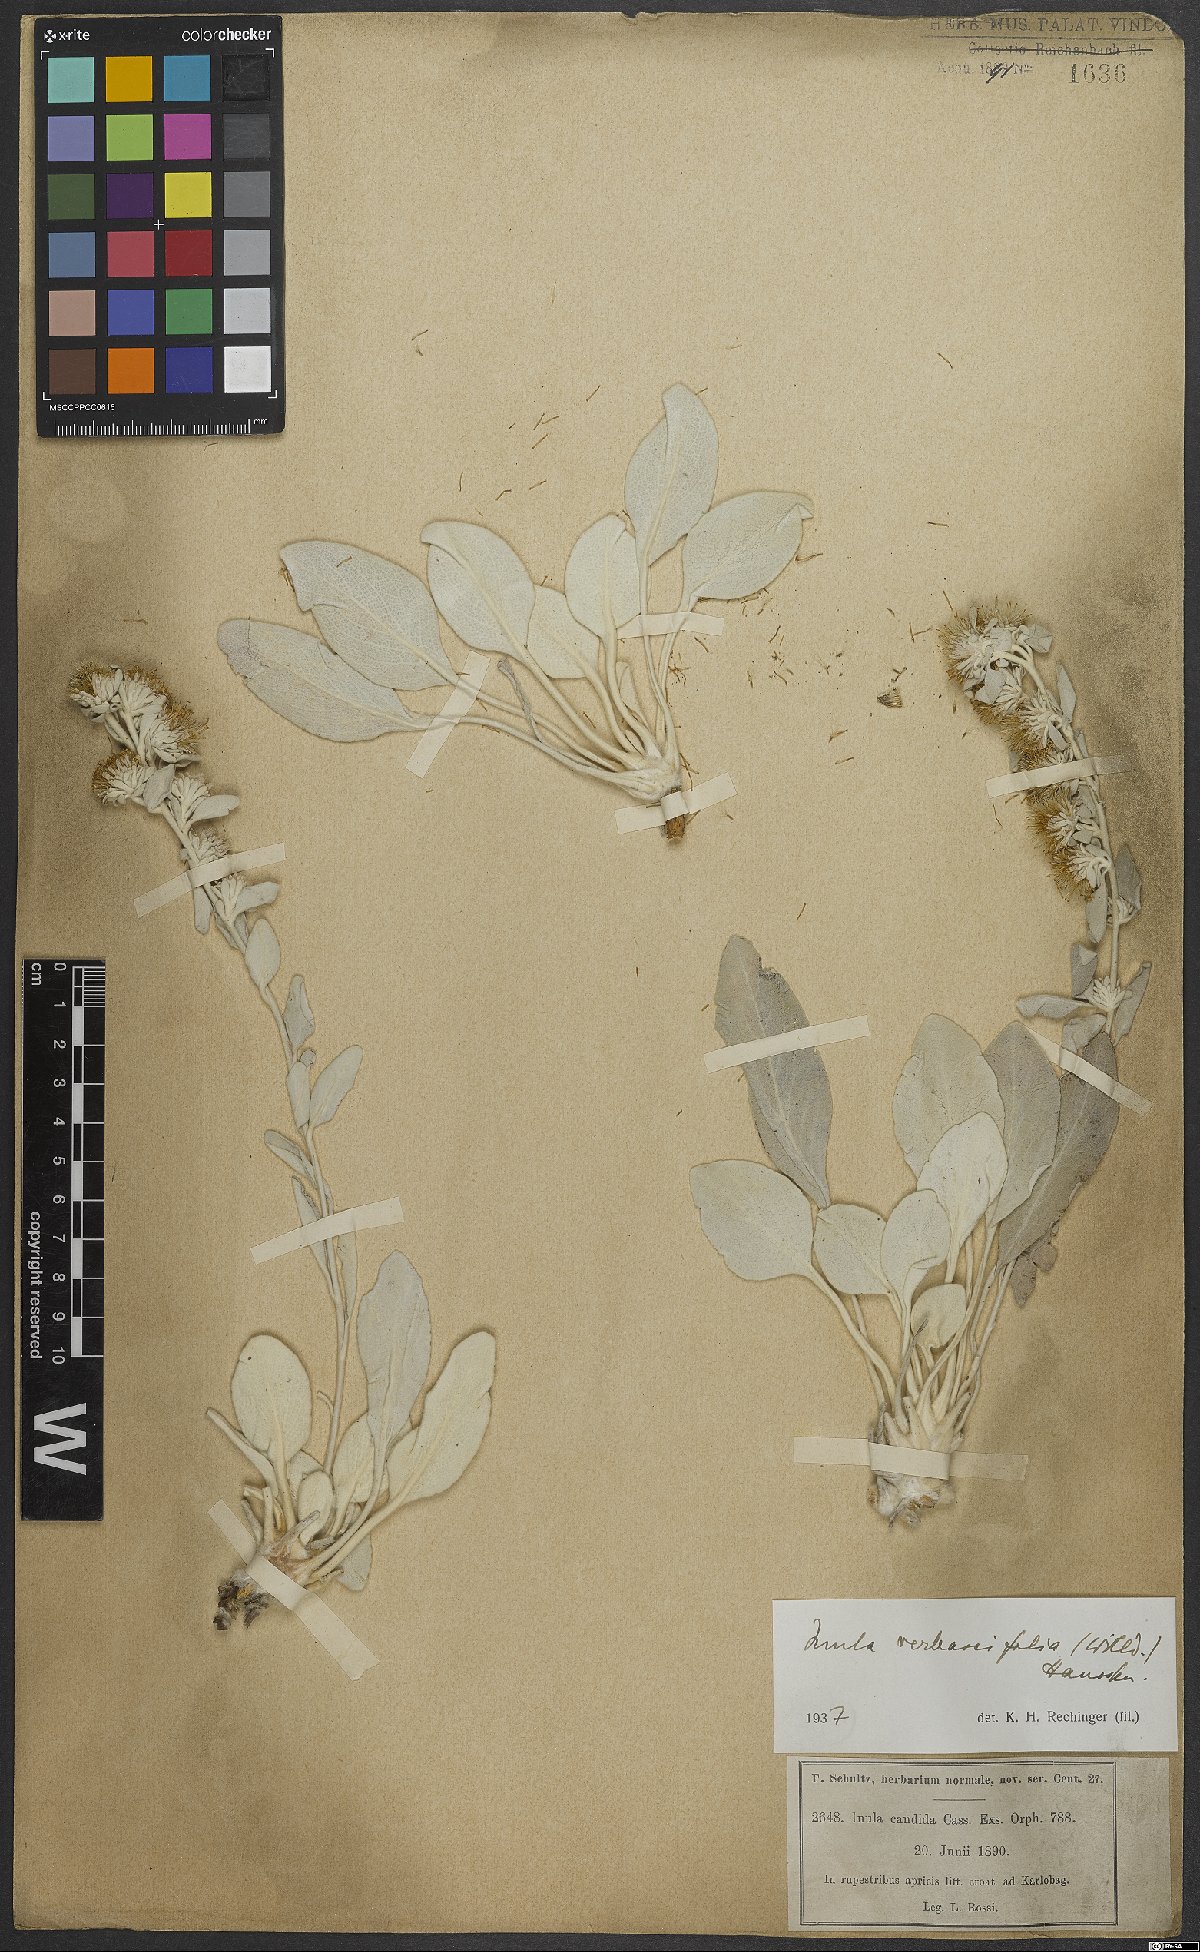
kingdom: Plantae
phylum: Tracheophyta
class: Magnoliopsida
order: Asterales
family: Asteraceae
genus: Pentanema
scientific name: Pentanema verbascifolium
